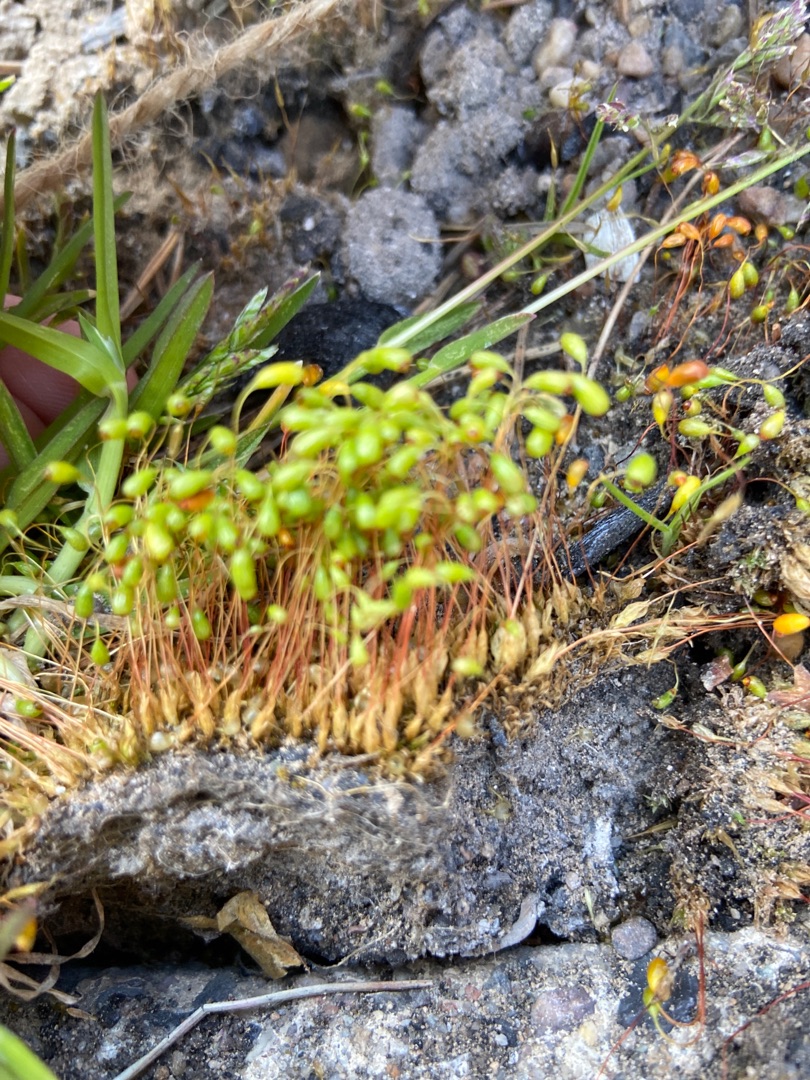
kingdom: Plantae
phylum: Bryophyta
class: Bryopsida
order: Funariales
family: Funariaceae
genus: Funaria
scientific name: Funaria hygrometrica
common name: Almindelig snobørste
